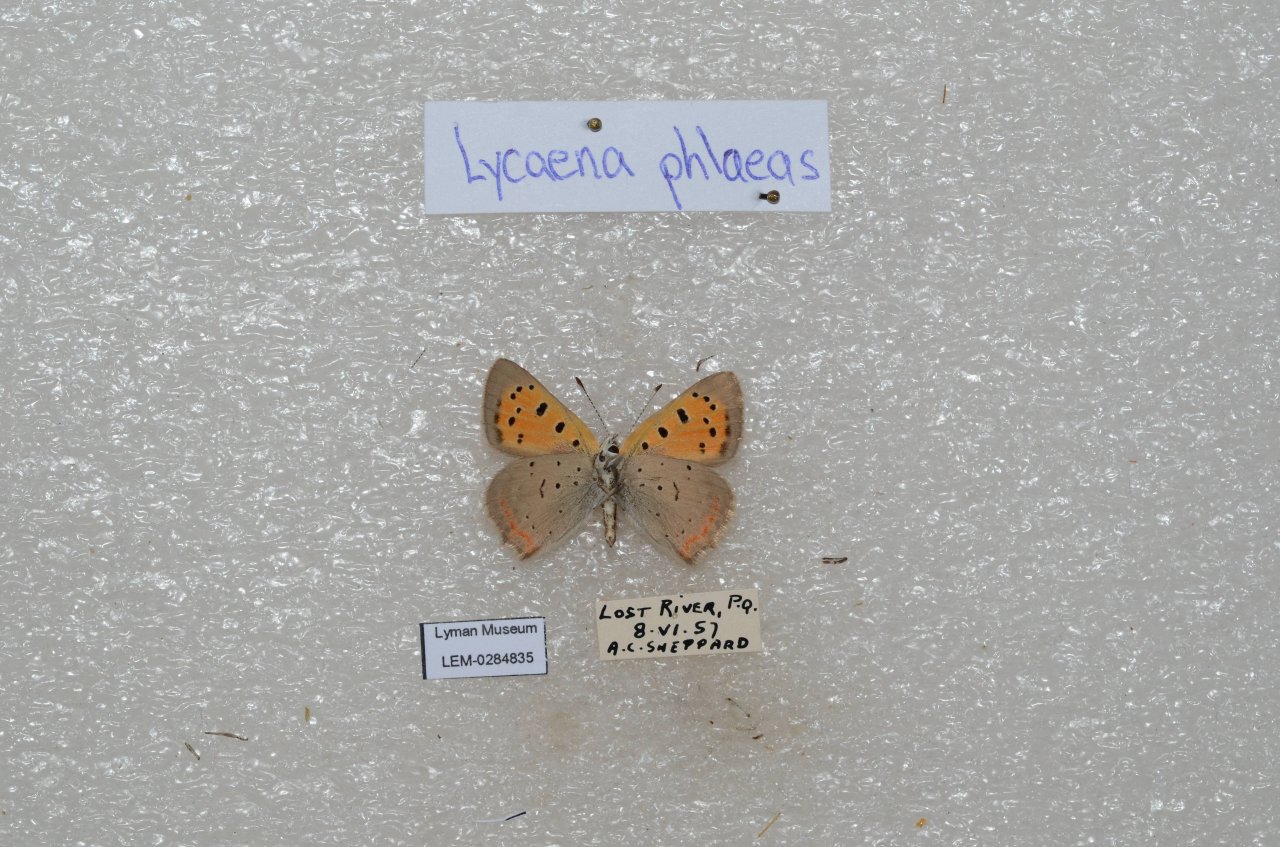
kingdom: Animalia
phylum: Arthropoda
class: Insecta
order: Lepidoptera
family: Lycaenidae
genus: Lycaena
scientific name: Lycaena phlaeas
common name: American Copper
